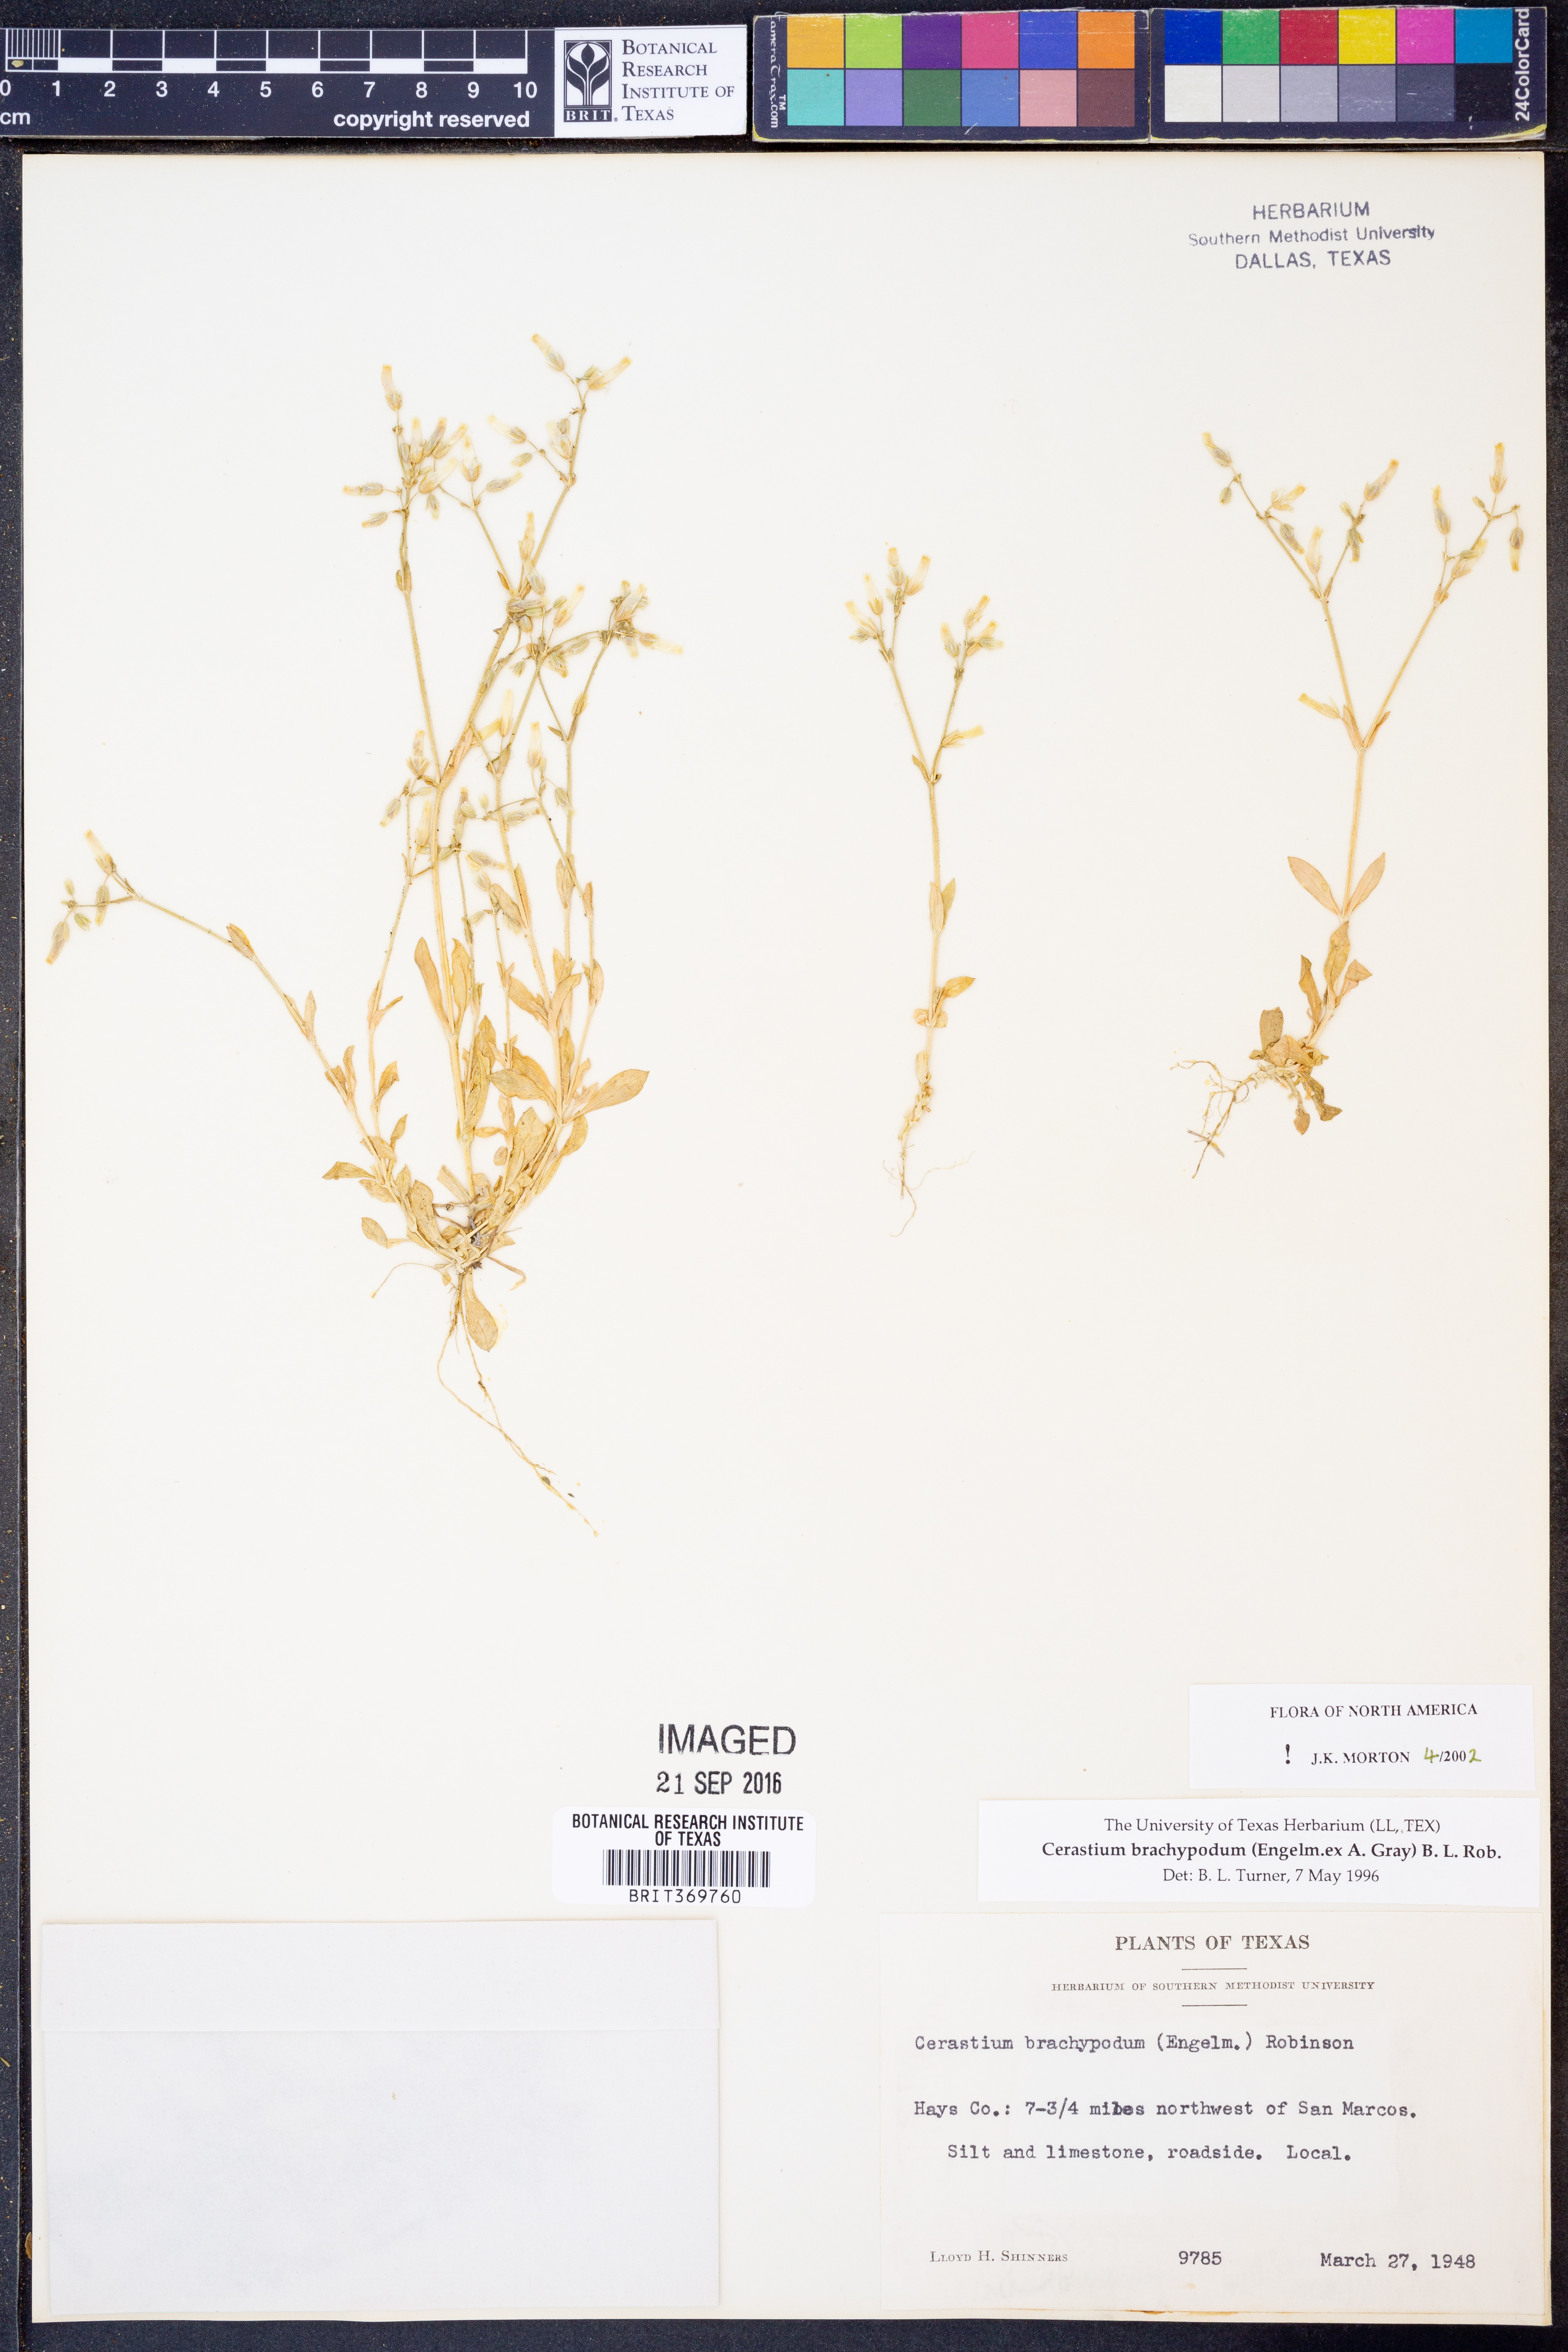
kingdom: Plantae
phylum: Tracheophyta
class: Magnoliopsida
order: Caryophyllales
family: Caryophyllaceae
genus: Cerastium
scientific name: Cerastium brachypodum
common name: Short-pedicelled nodding chickweed
